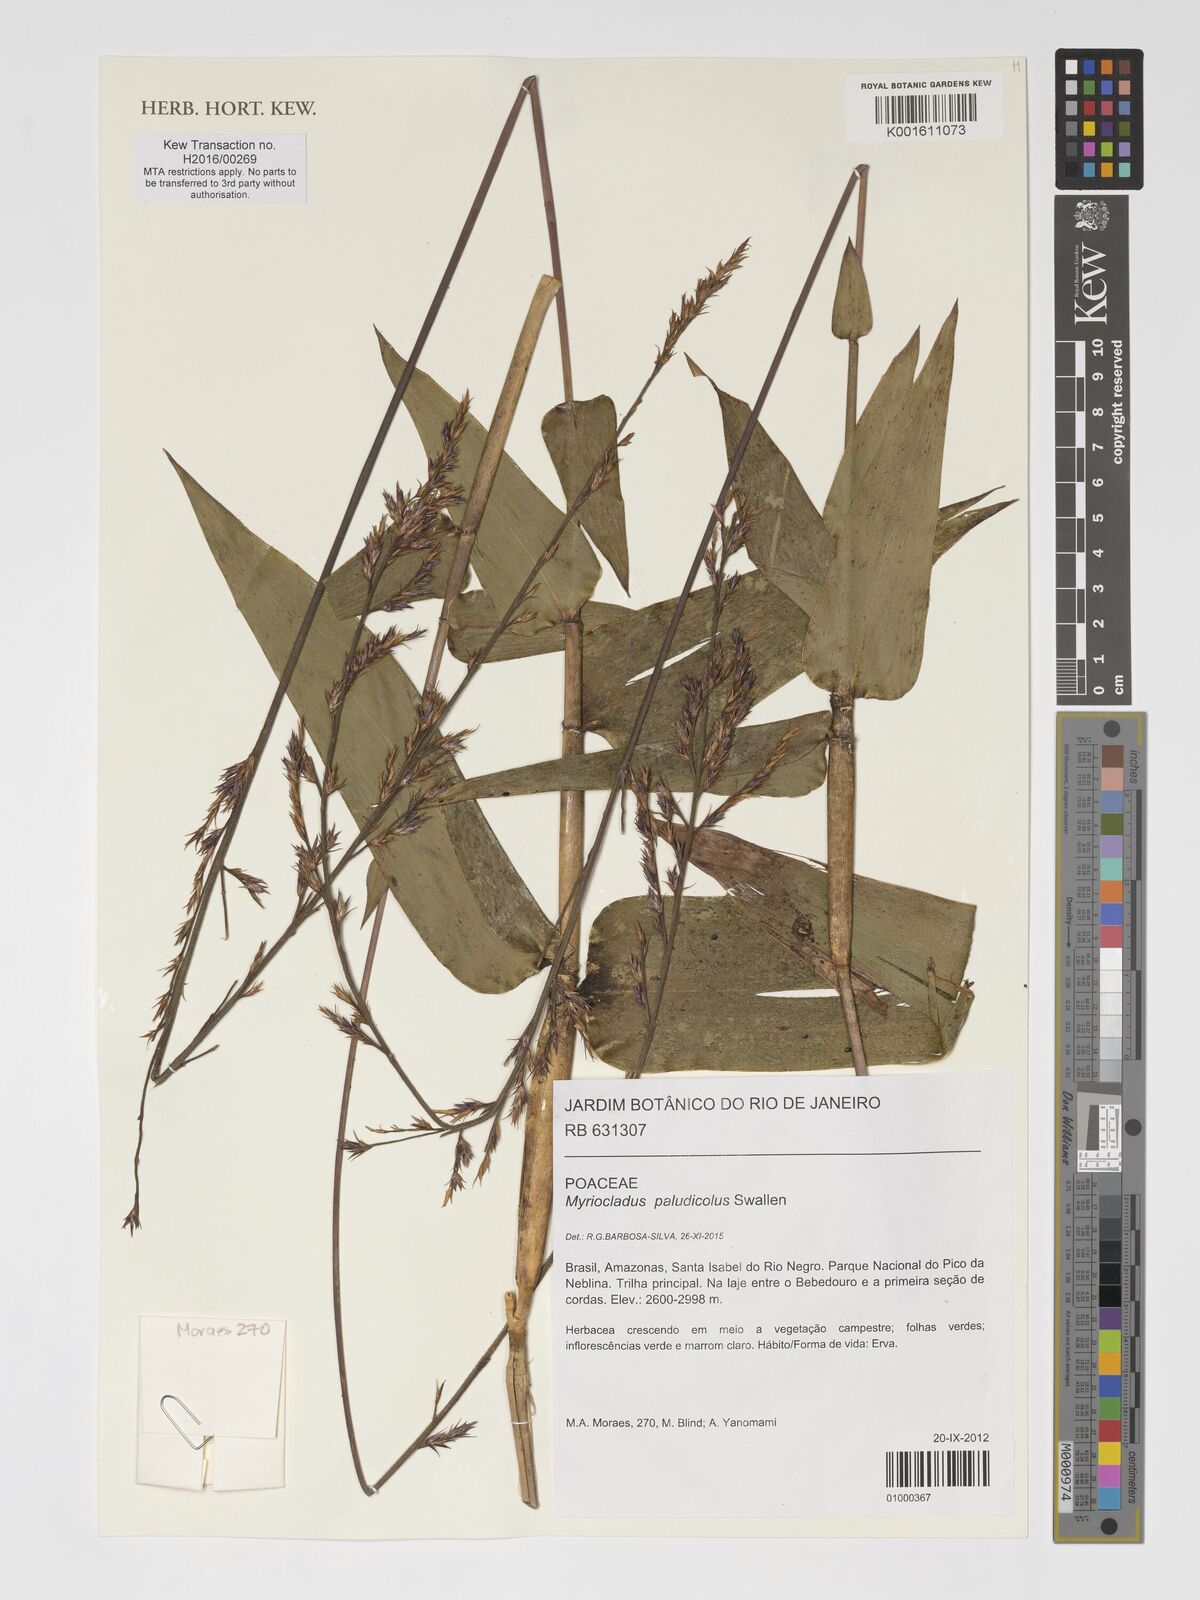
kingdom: Plantae
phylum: Tracheophyta
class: Liliopsida
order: Poales
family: Poaceae
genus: Myriocladus
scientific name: Myriocladus paludicola
